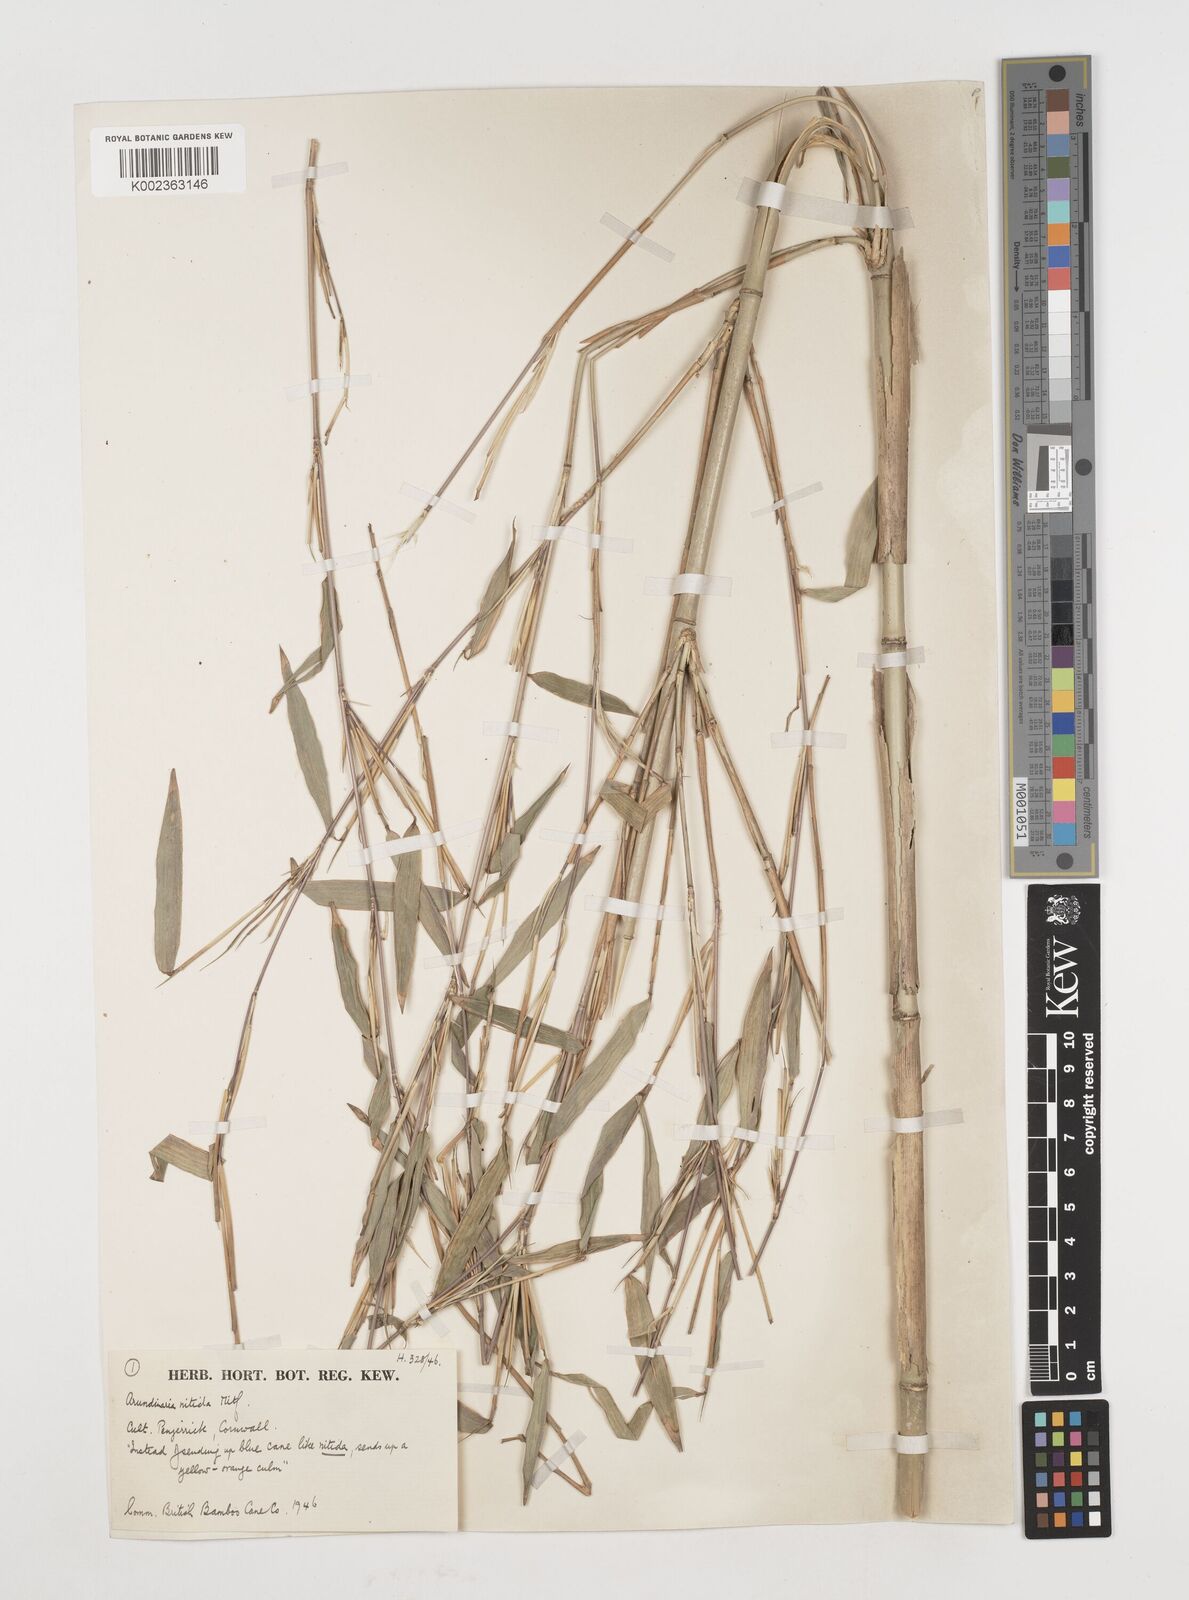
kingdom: Plantae
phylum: Tracheophyta
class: Liliopsida
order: Poales
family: Poaceae
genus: Fargesia
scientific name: Fargesia
